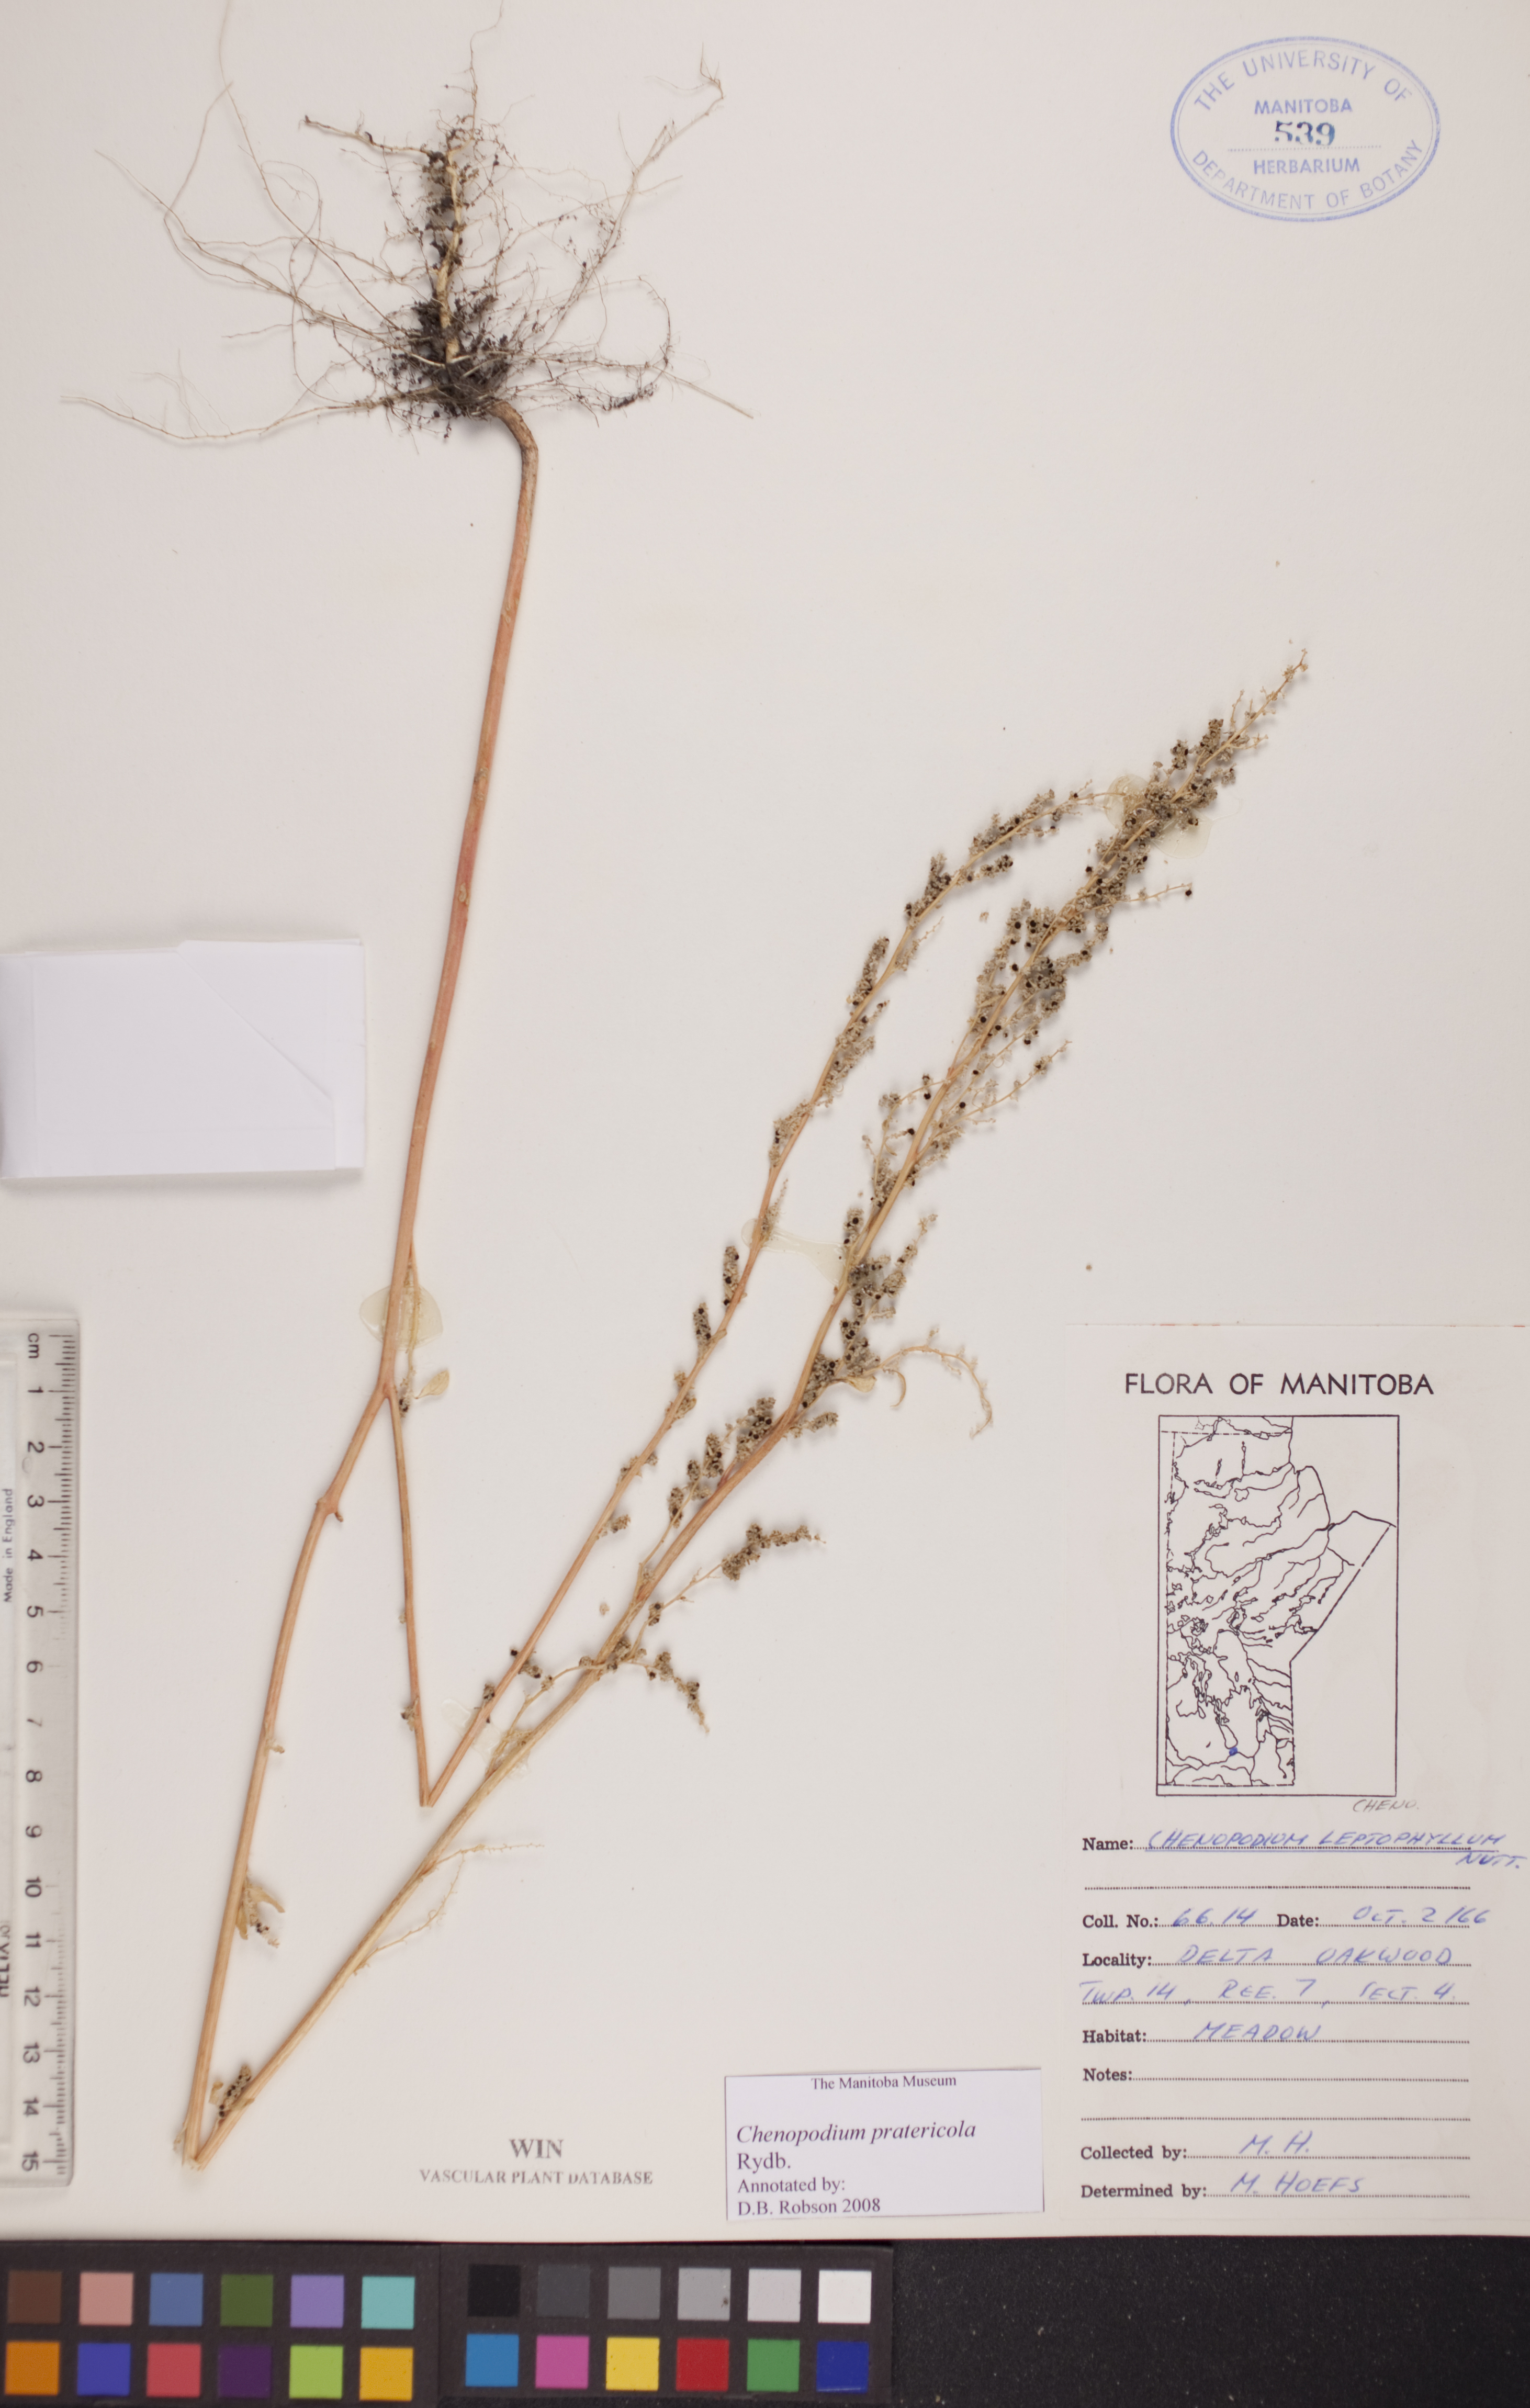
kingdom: Plantae
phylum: Tracheophyta
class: Magnoliopsida
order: Caryophyllales
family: Amaranthaceae
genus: Chenopodium
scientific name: Chenopodium pratericola
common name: Desert goosefoot
